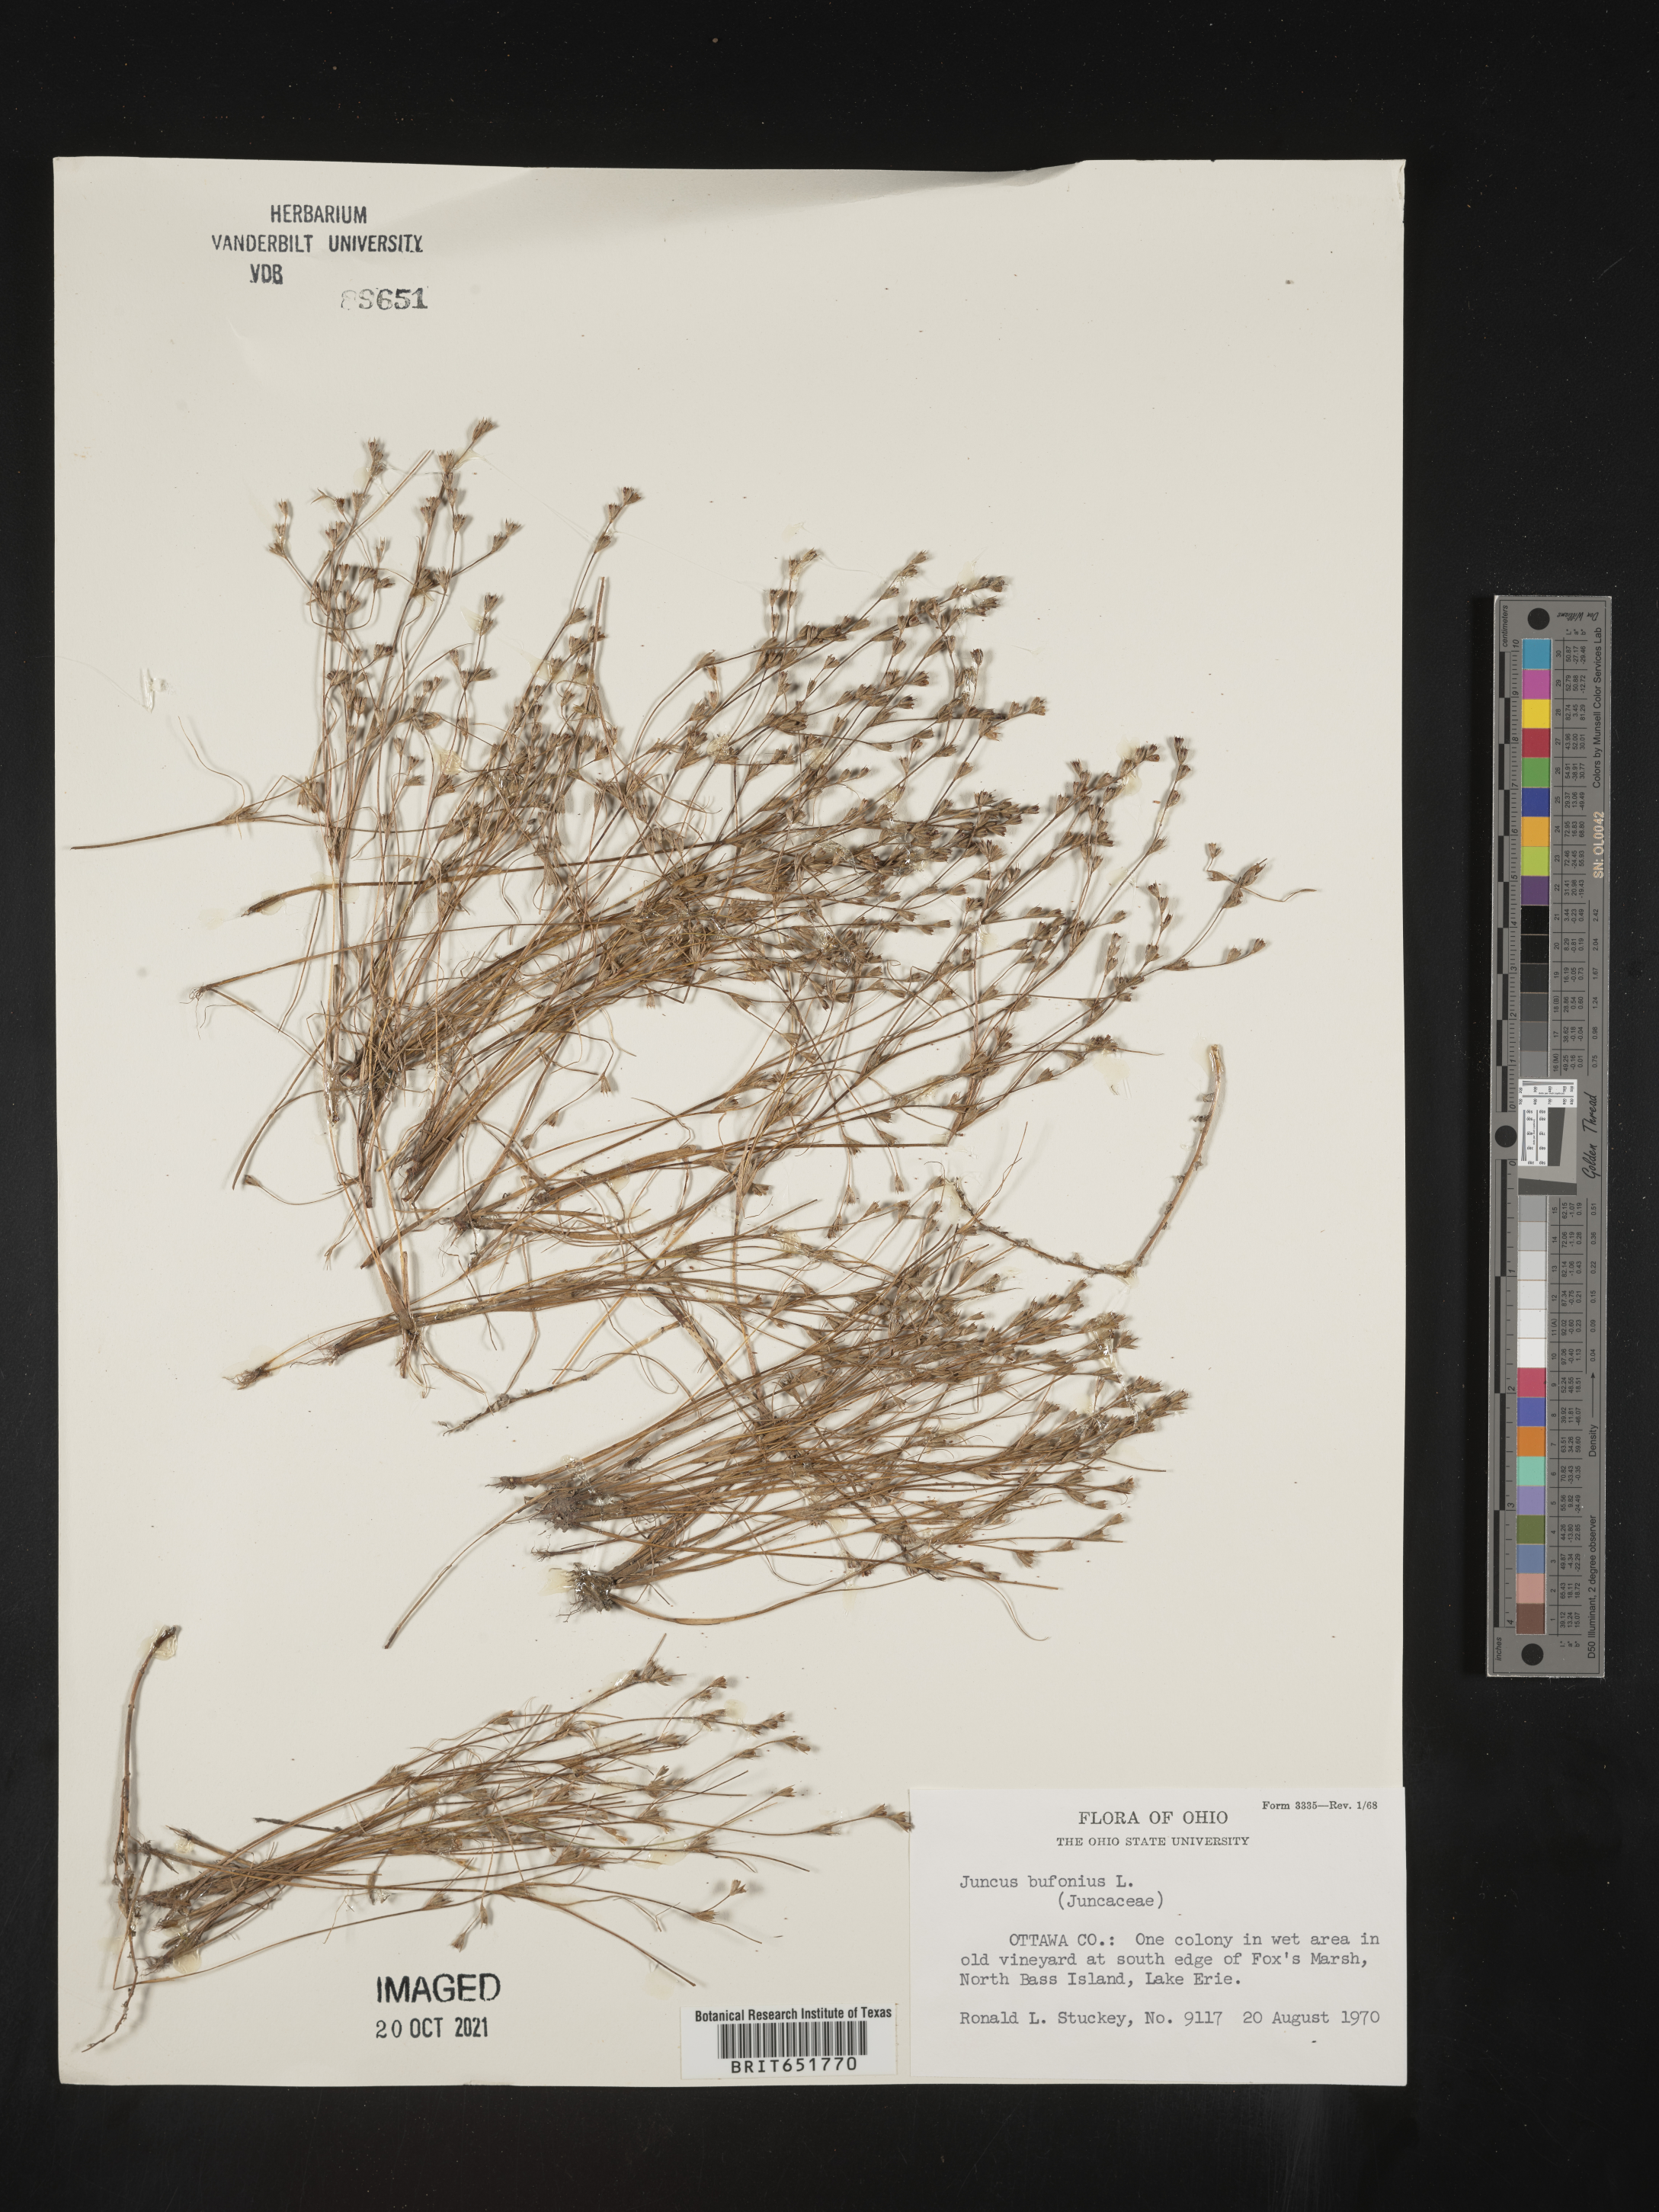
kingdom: Plantae
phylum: Tracheophyta
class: Liliopsida
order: Poales
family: Juncaceae
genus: Juncus
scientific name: Juncus bufonius
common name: Toad rush
